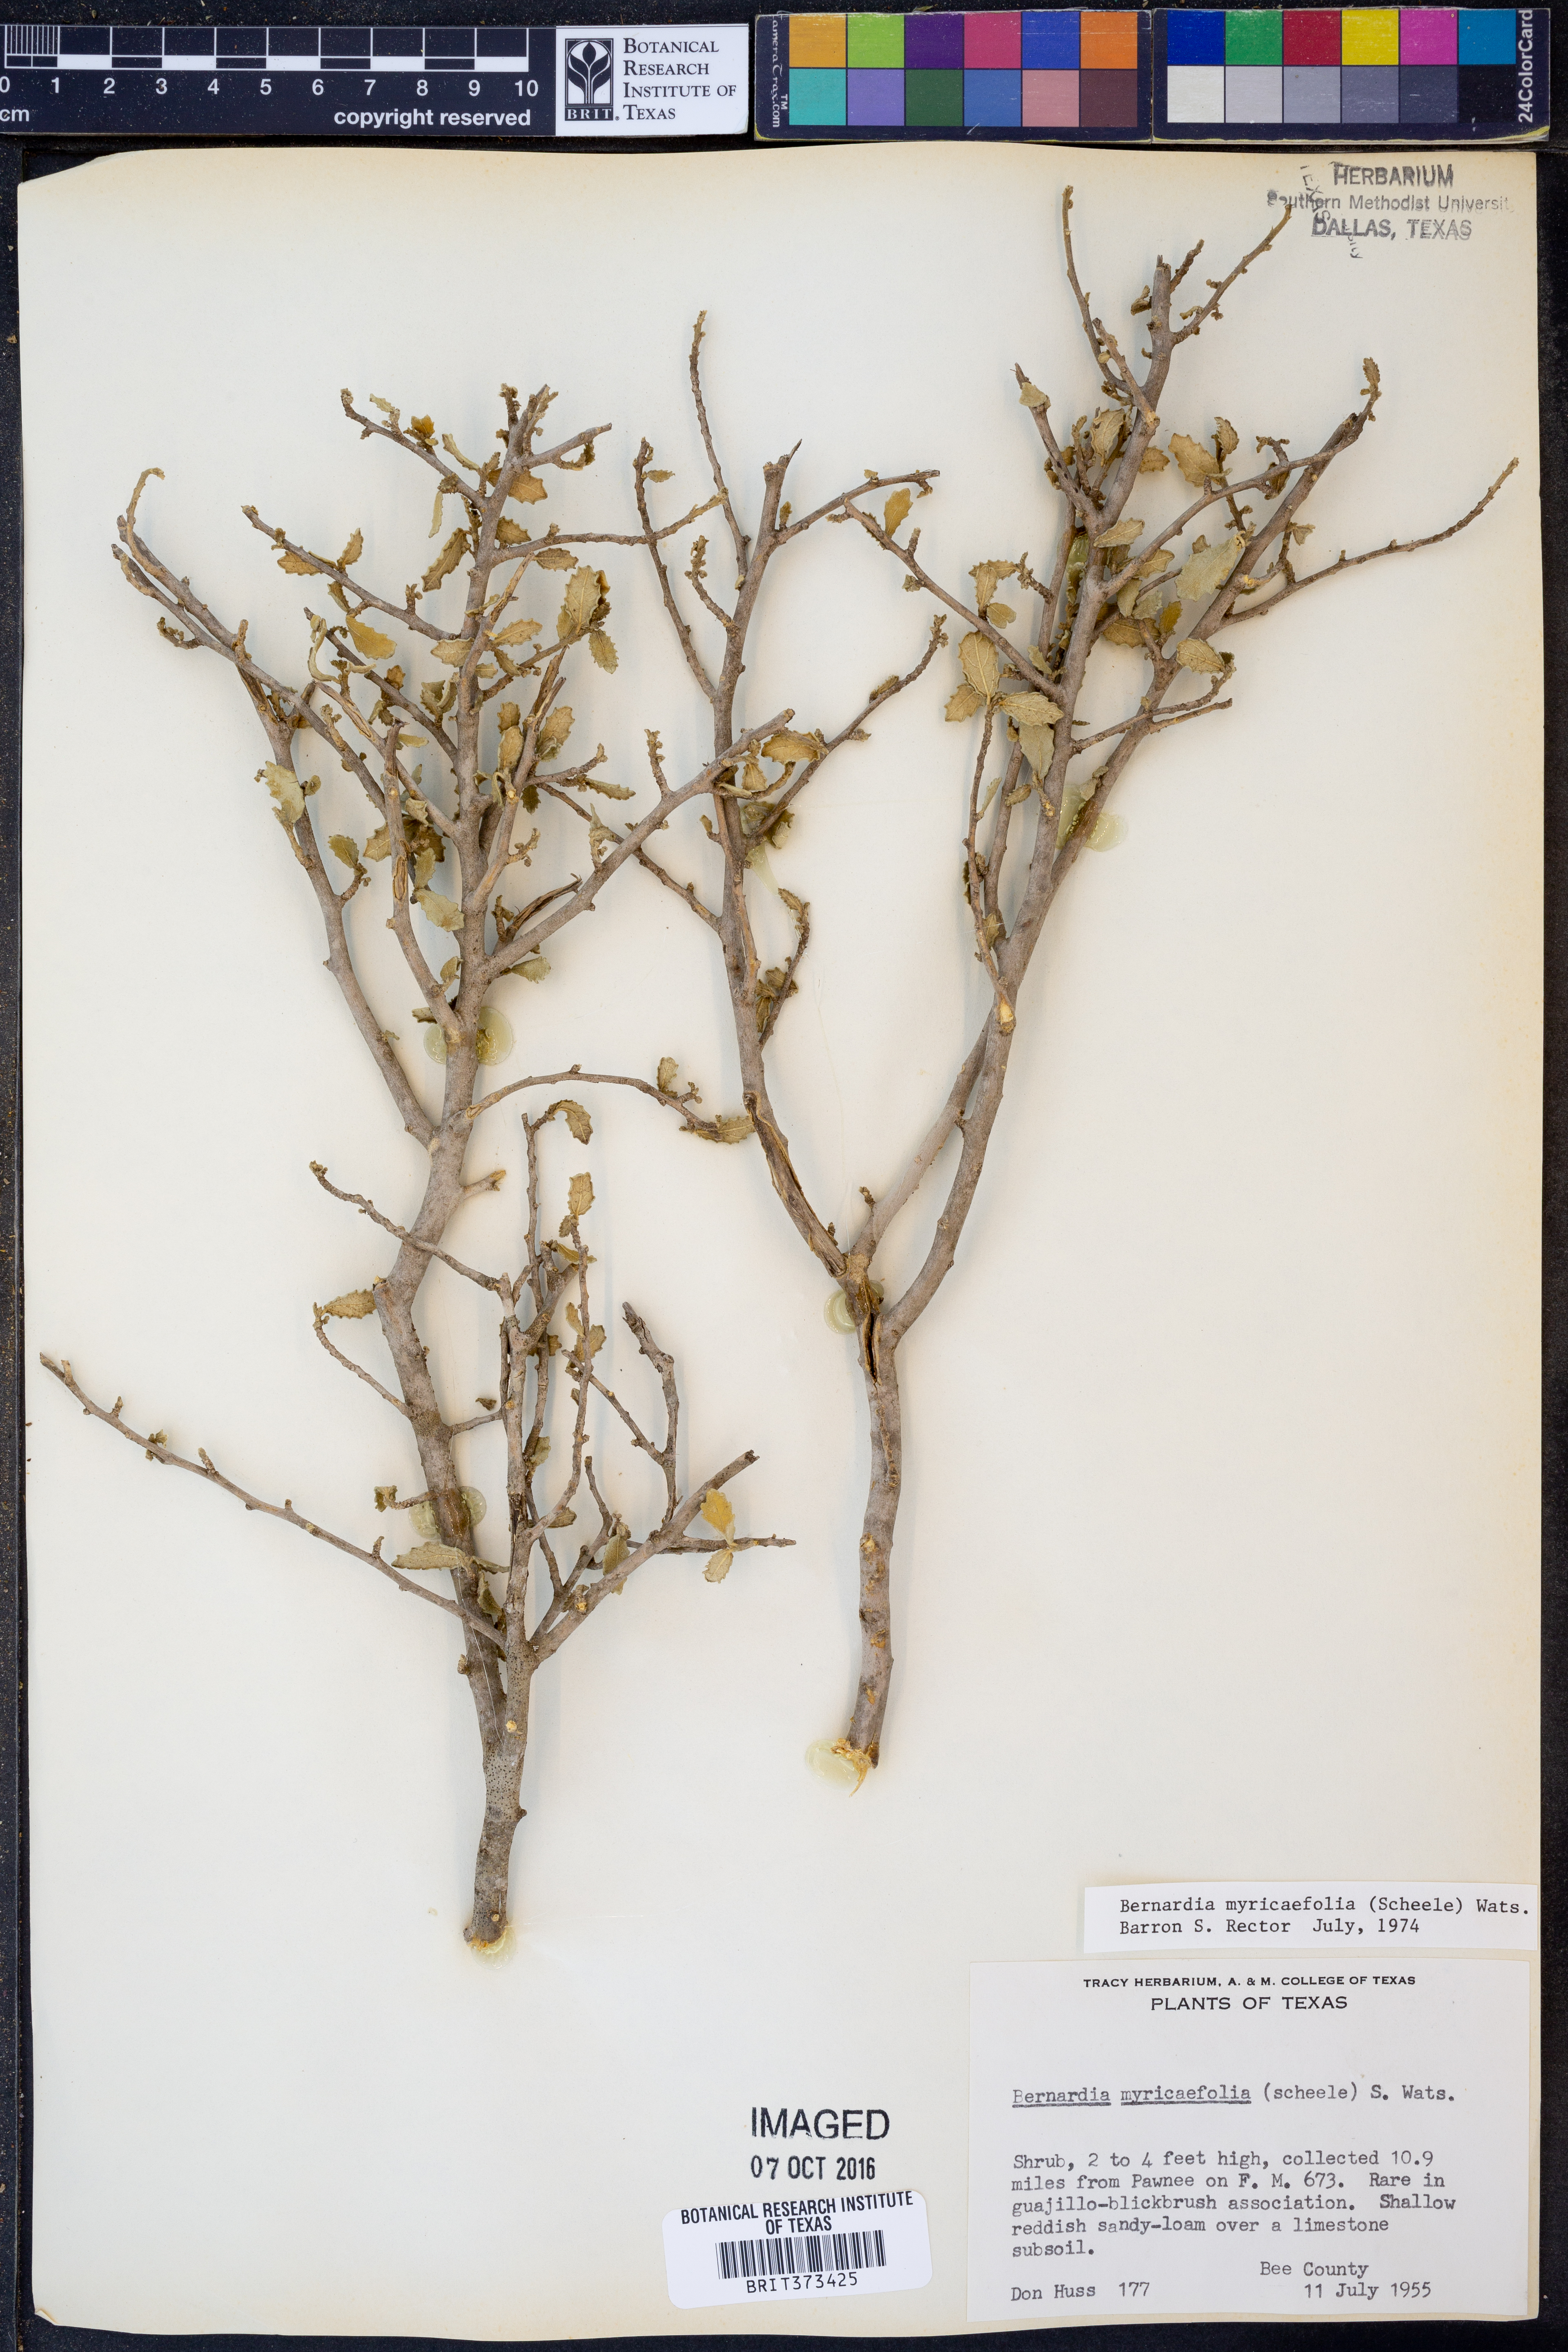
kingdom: Plantae
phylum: Tracheophyta
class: Magnoliopsida
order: Malpighiales
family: Euphorbiaceae
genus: Bernardia
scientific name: Bernardia myricifolia
